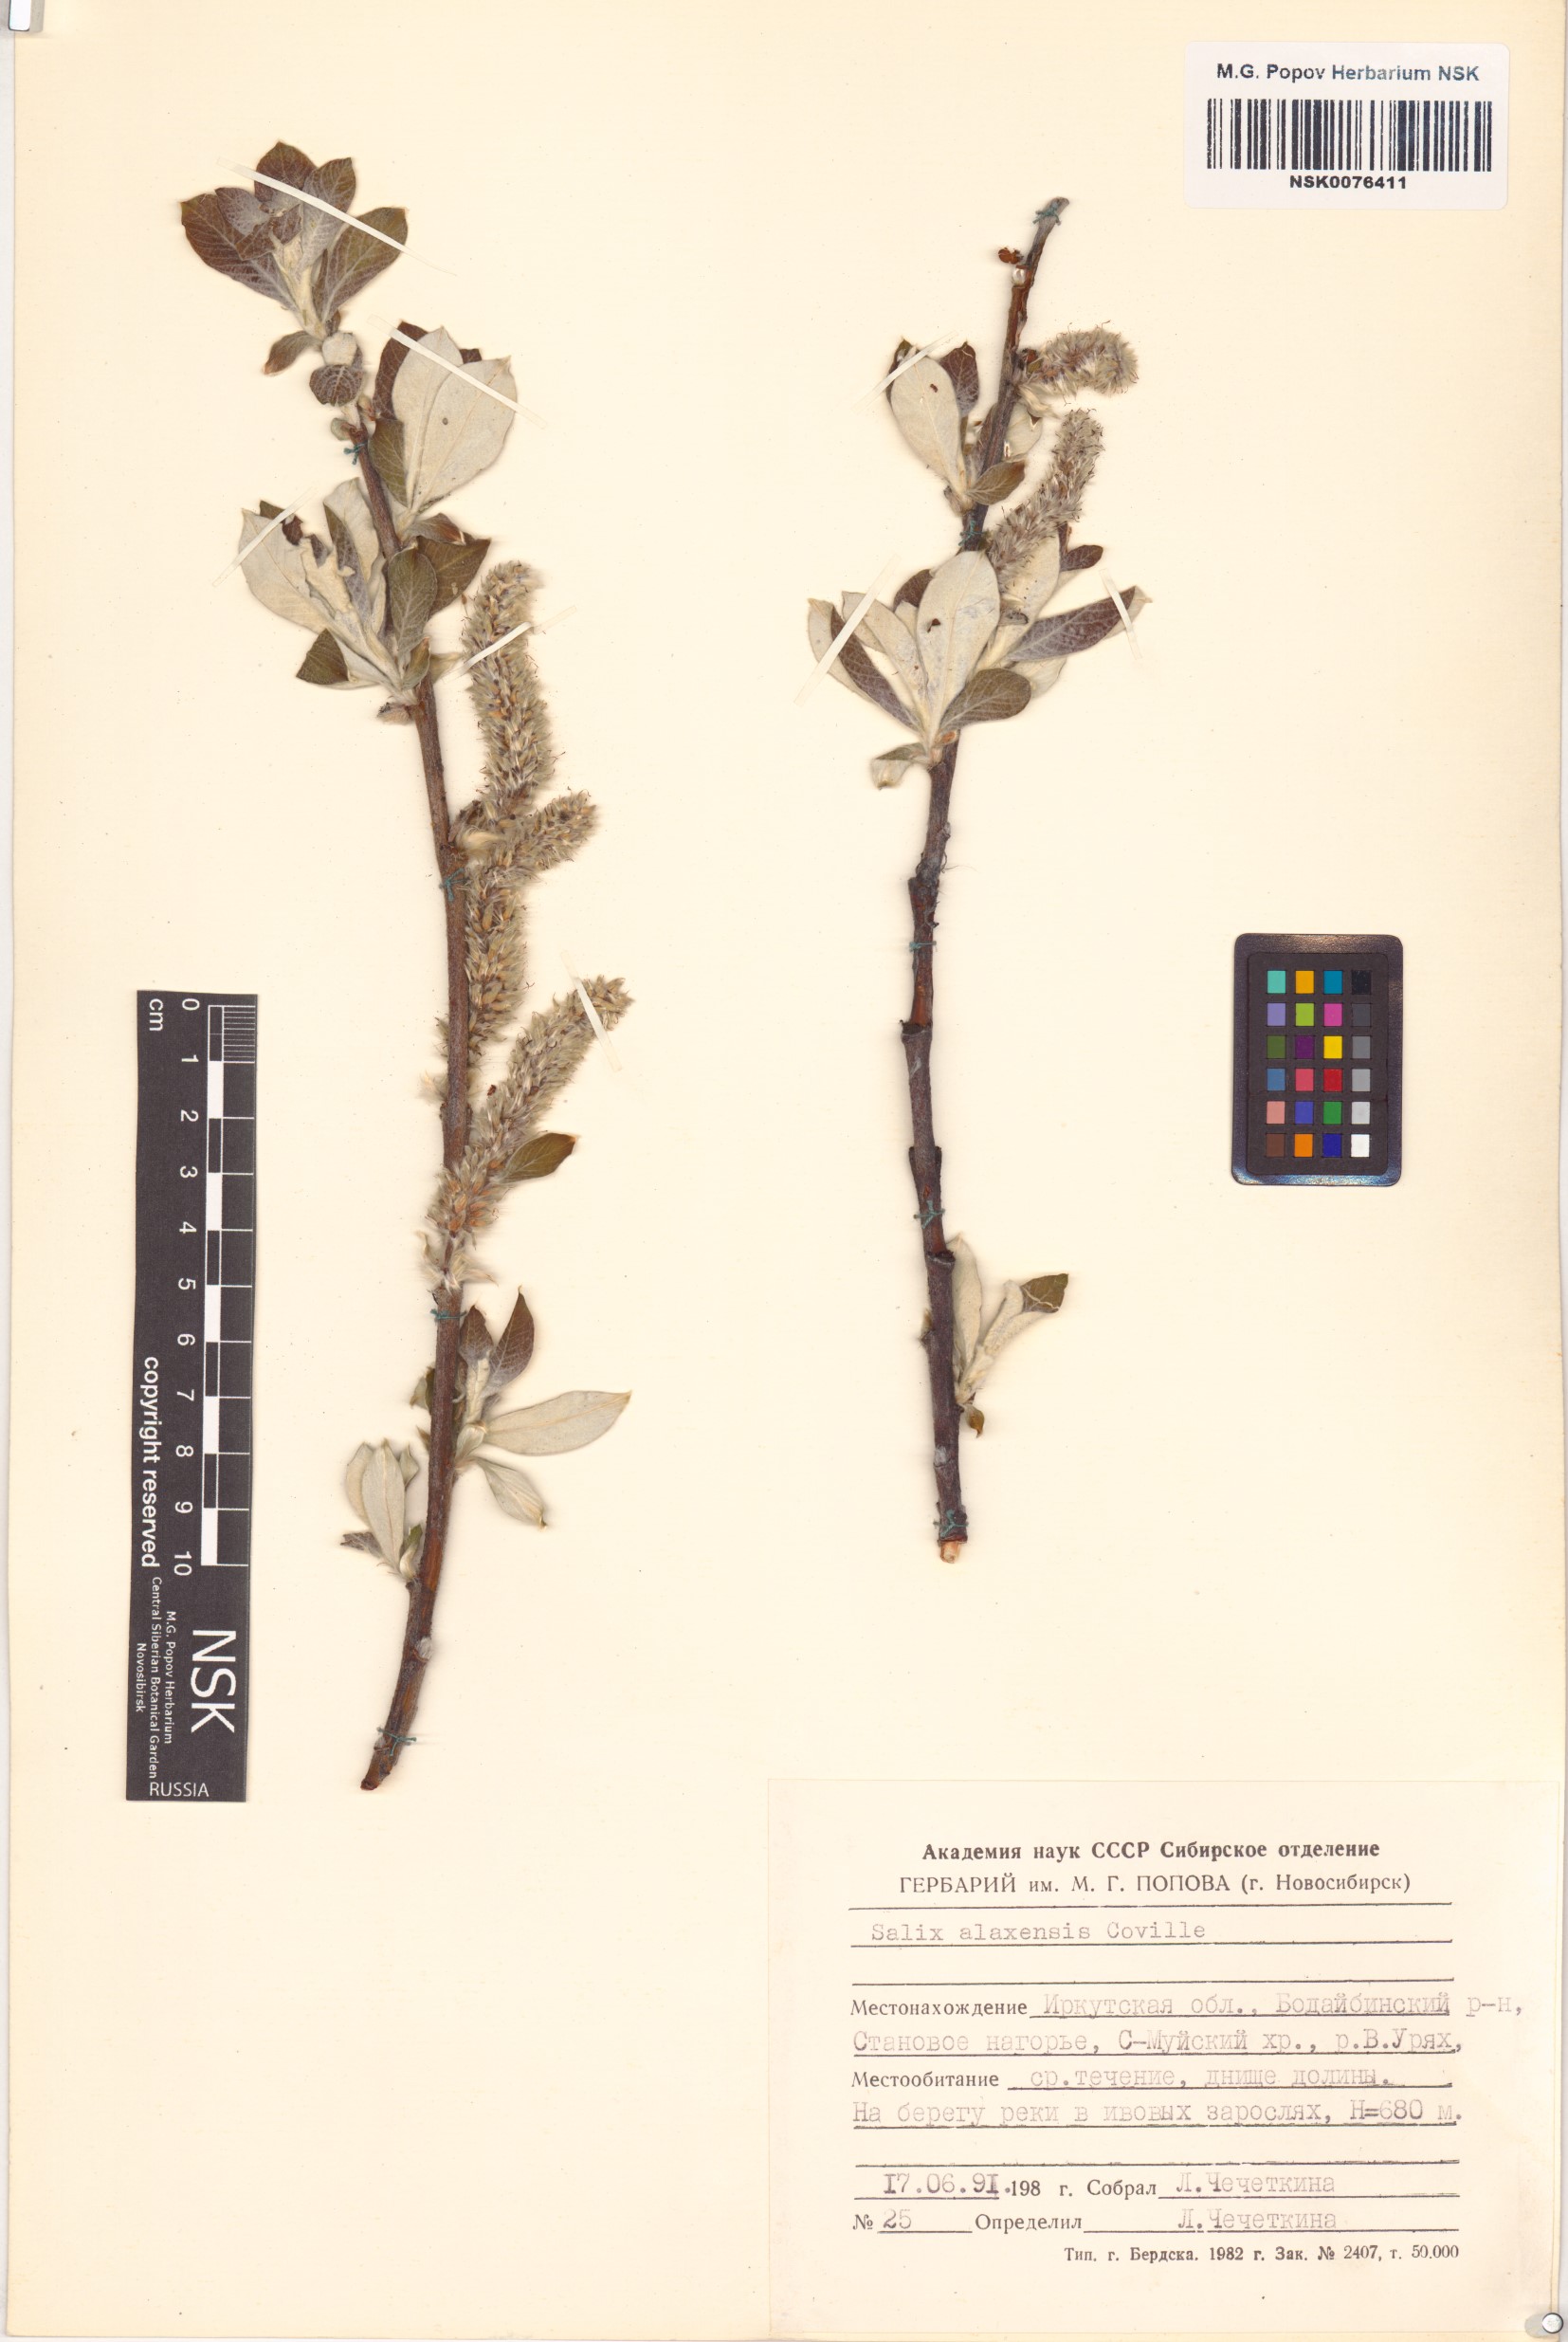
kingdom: Plantae
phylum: Tracheophyta
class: Magnoliopsida
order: Malpighiales
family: Salicaceae
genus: Salix
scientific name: Salix alaxensis
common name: Feltleaf willow
